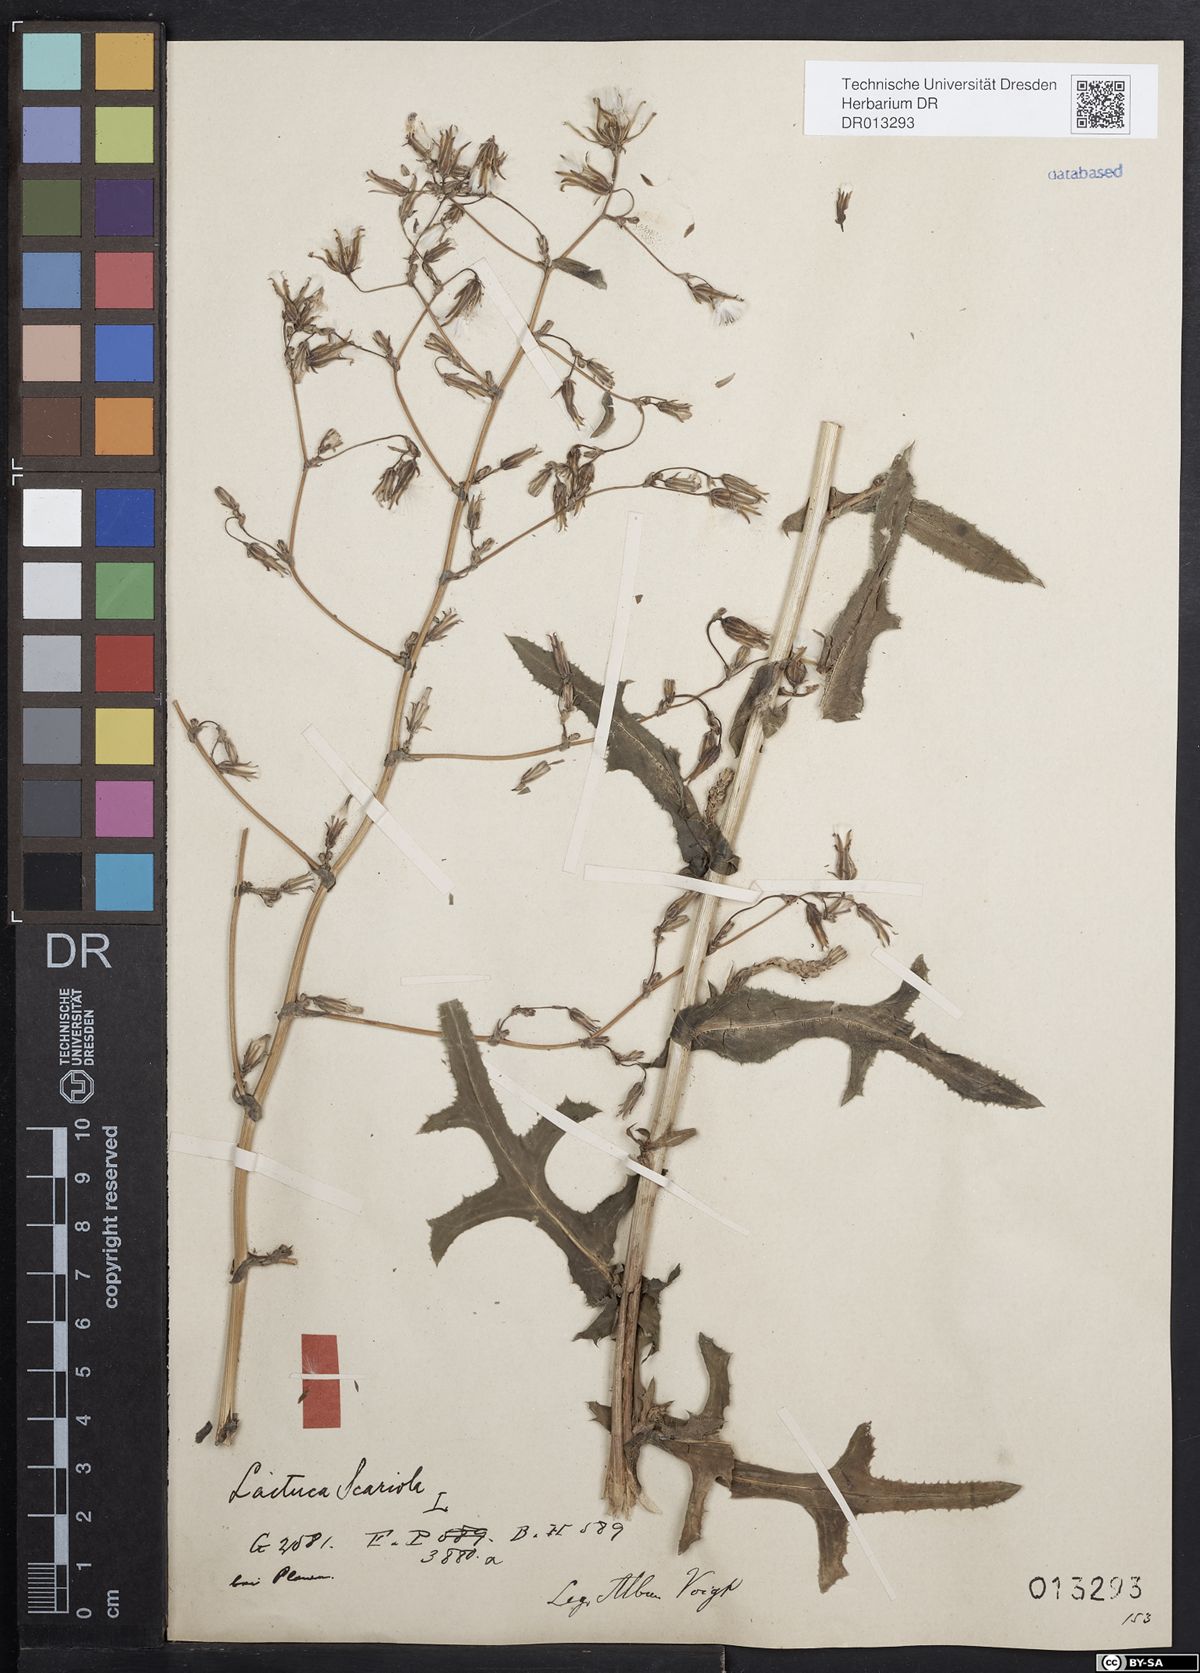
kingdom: Plantae
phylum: Tracheophyta
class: Magnoliopsida
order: Asterales
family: Asteraceae
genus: Lactuca
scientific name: Lactuca serriola
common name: Prickly lettuce
